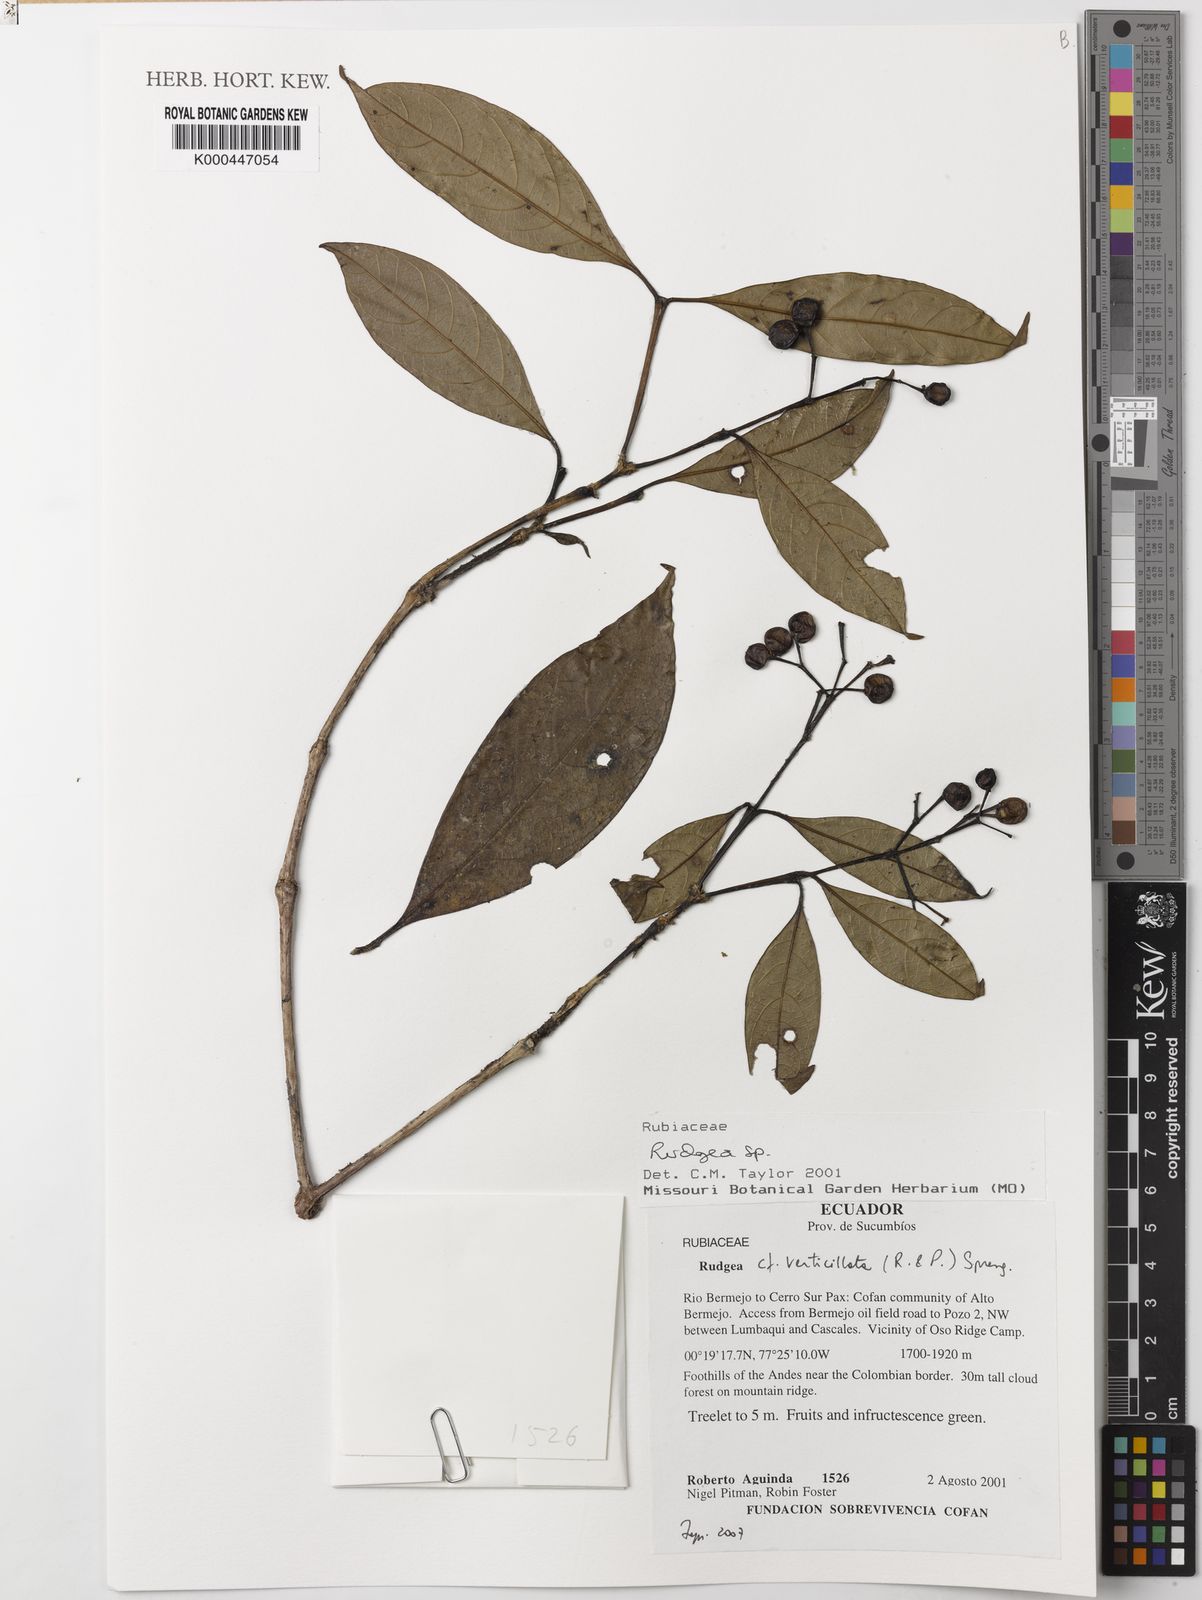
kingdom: Plantae
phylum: Tracheophyta
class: Magnoliopsida
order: Gentianales
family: Rubiaceae
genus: Rudgea
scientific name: Rudgea verticillata
